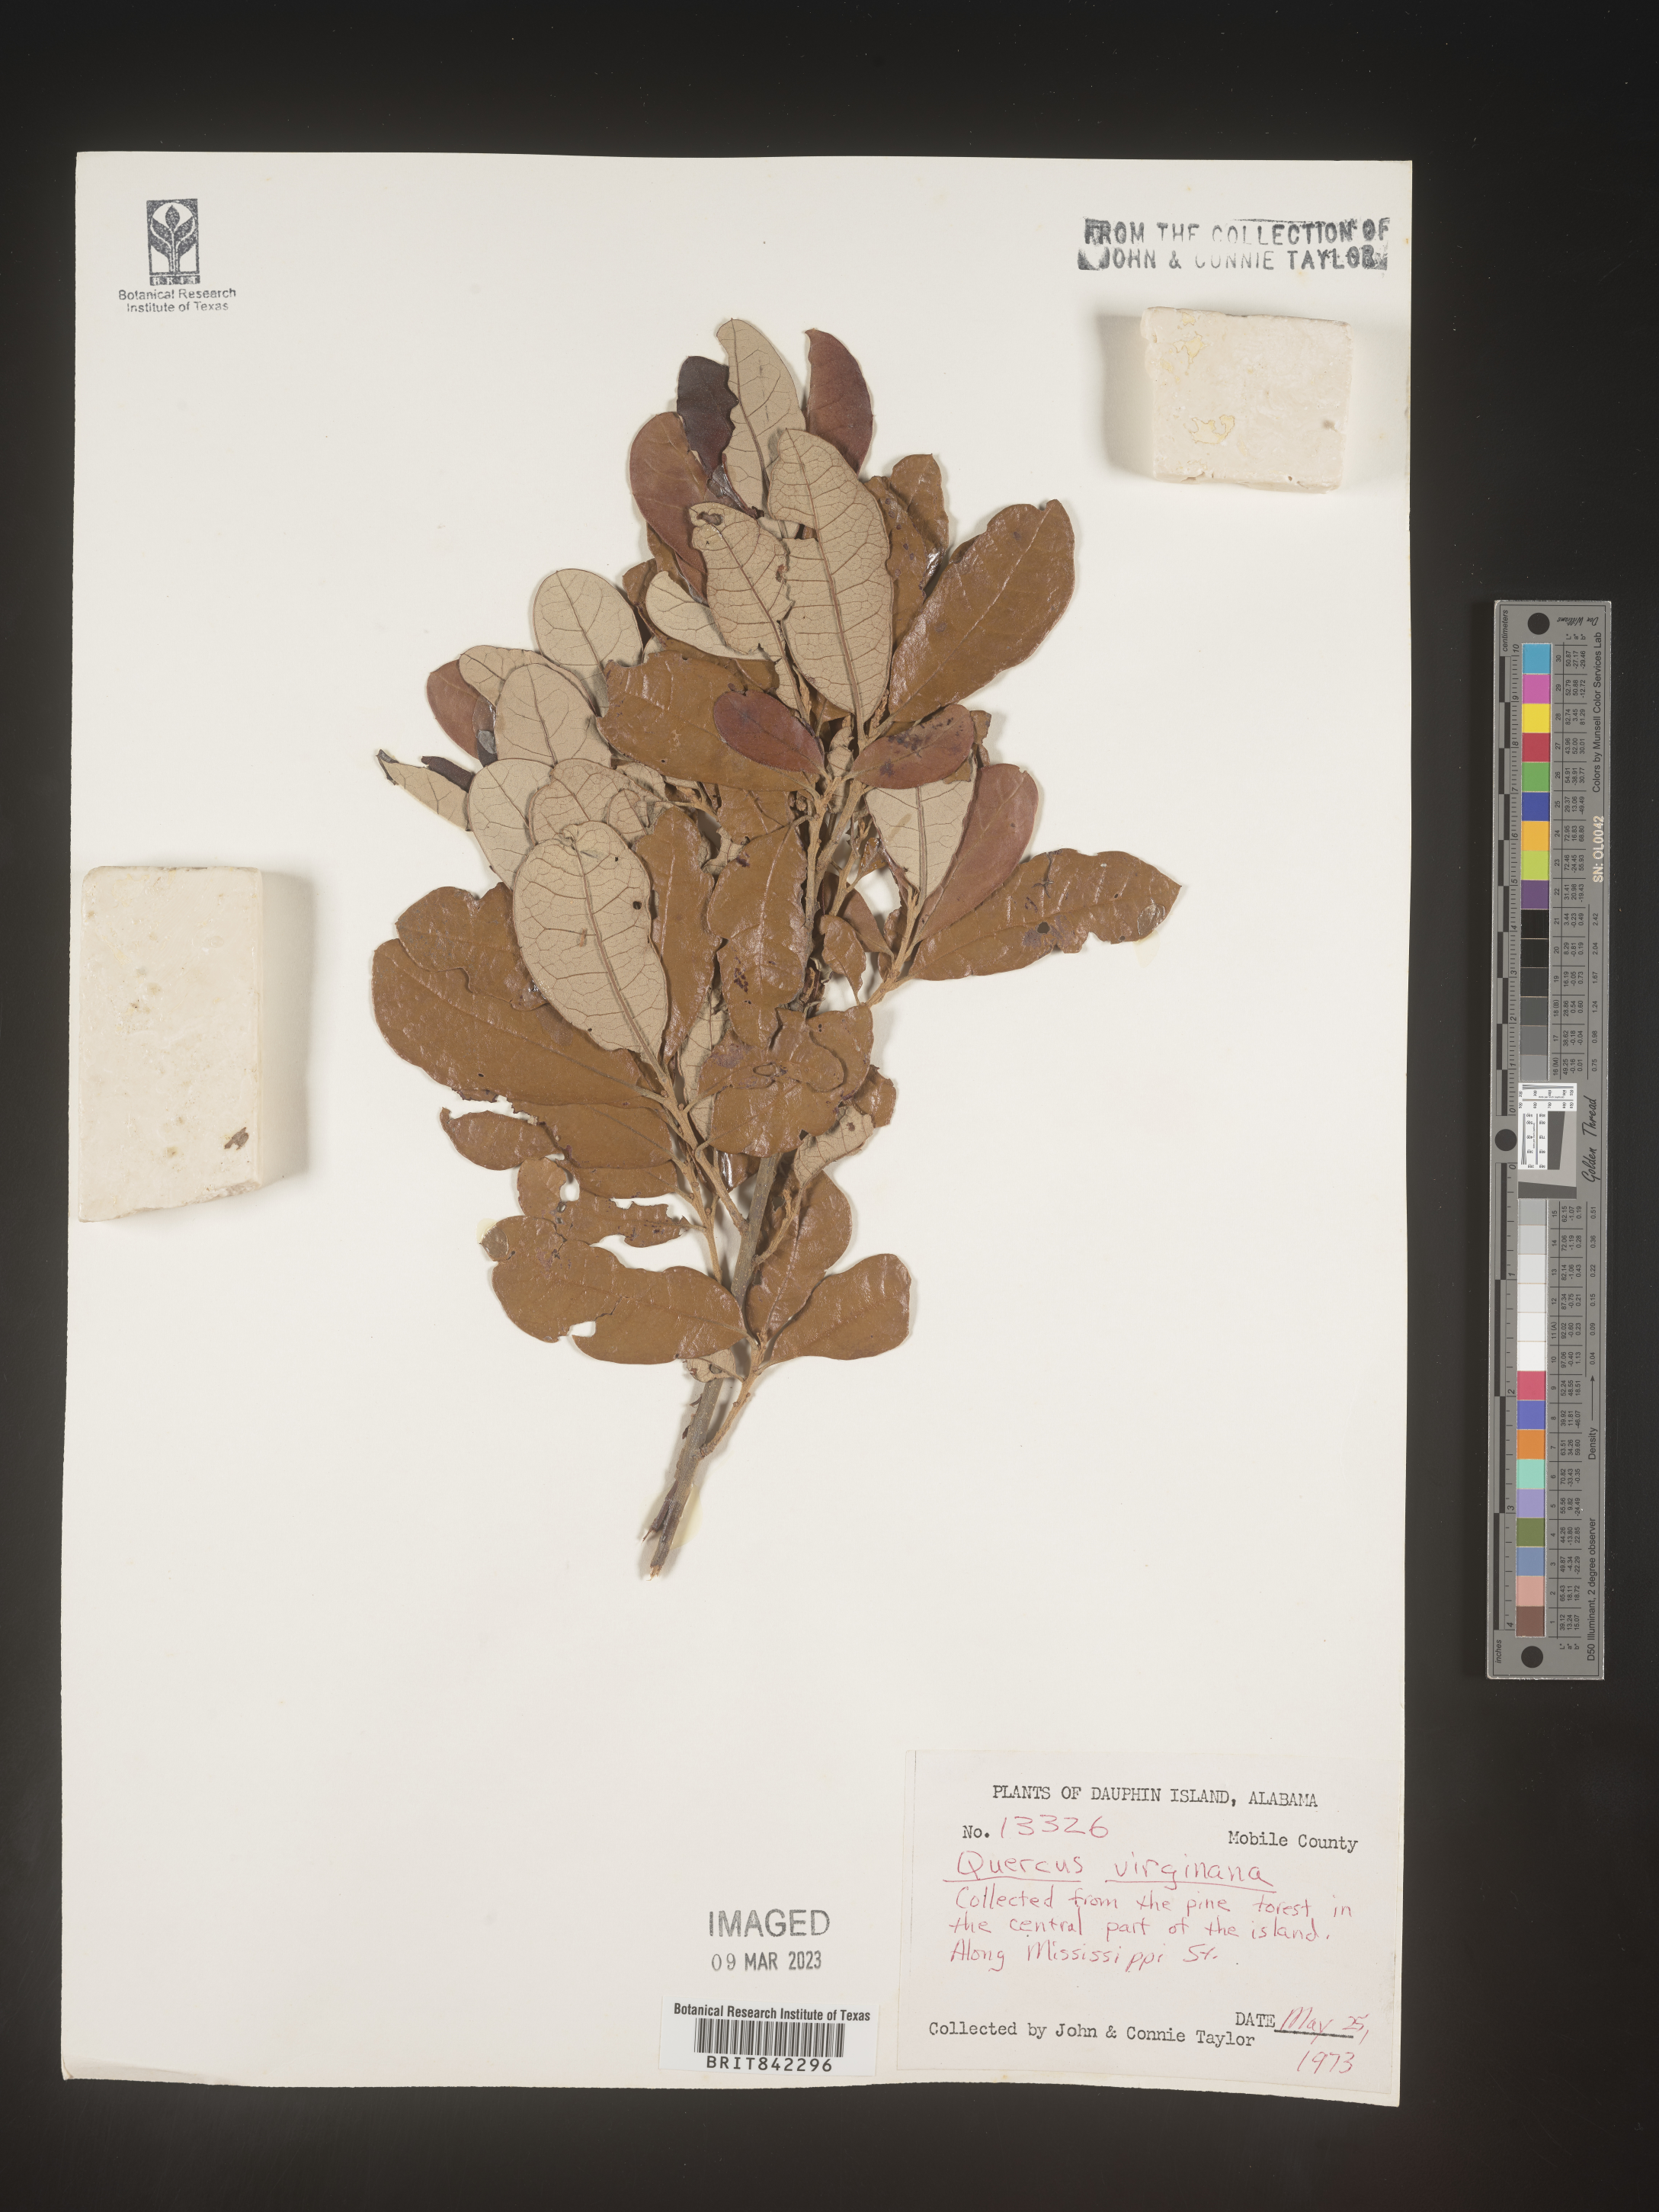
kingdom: Plantae
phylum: Tracheophyta
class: Magnoliopsida
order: Fagales
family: Fagaceae
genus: Quercus
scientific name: Quercus virginiana
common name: Southern live oak
